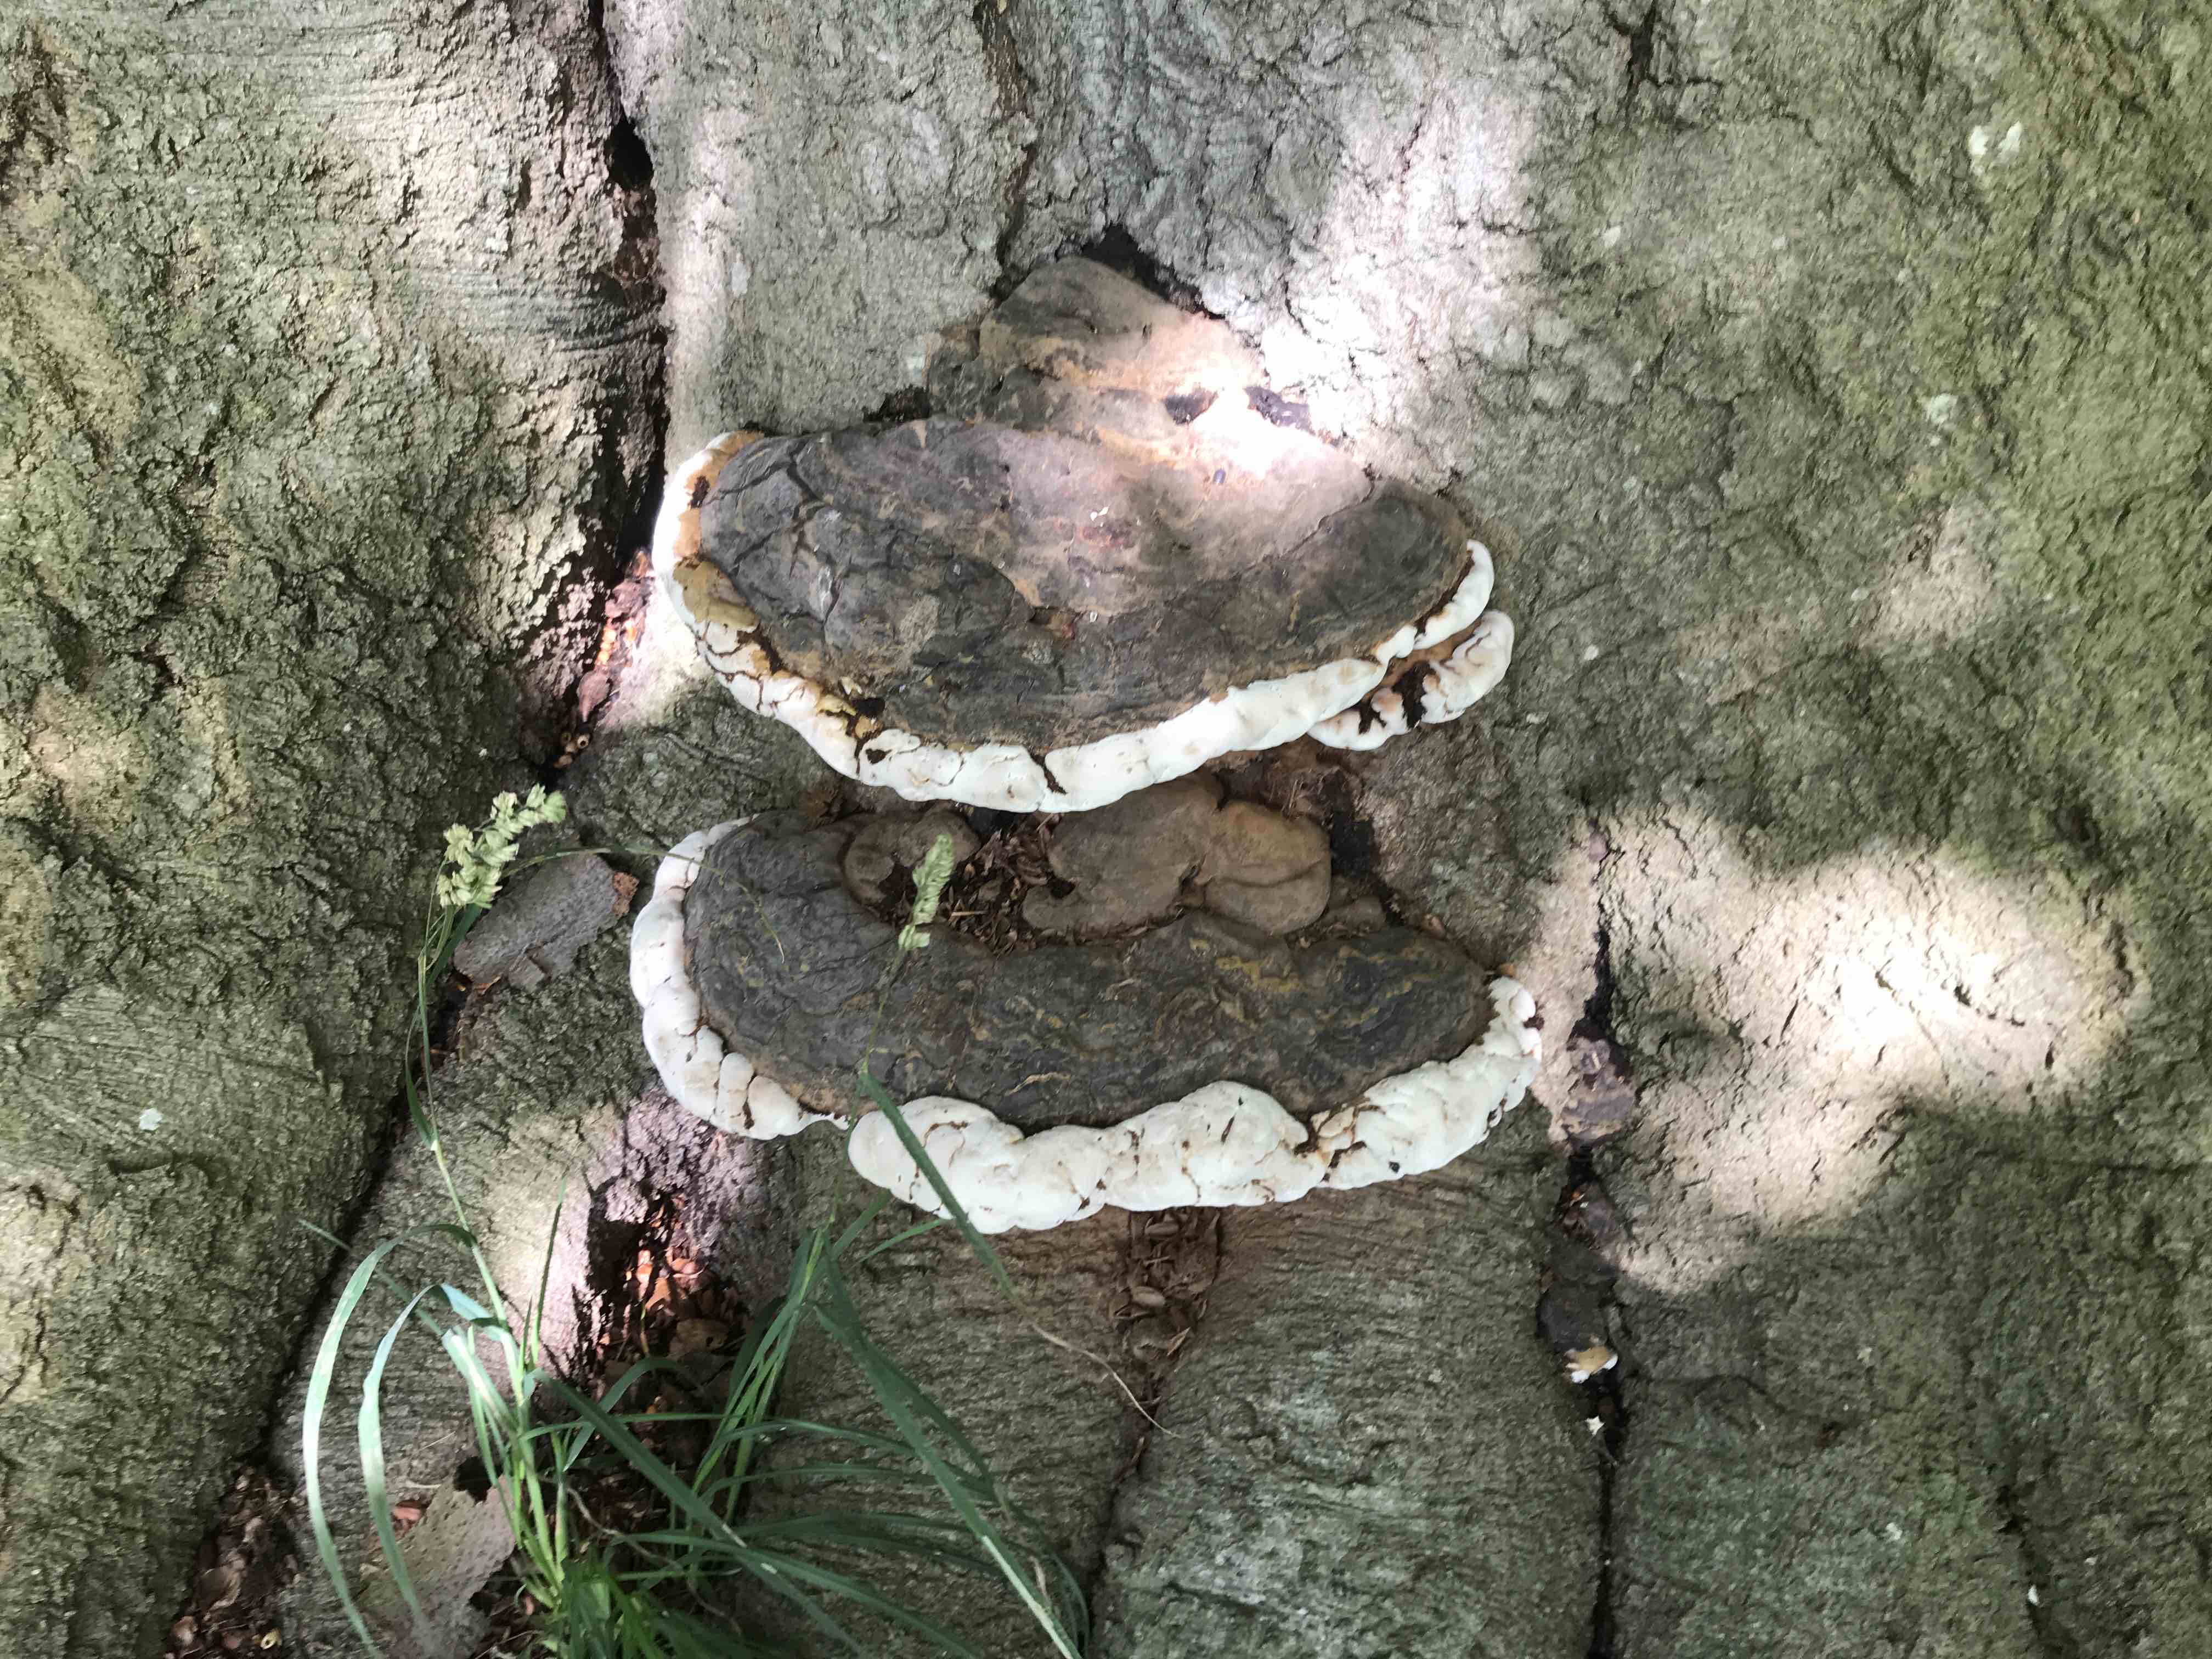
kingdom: Fungi
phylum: Basidiomycota
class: Agaricomycetes
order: Polyporales
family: Polyporaceae
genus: Ganoderma
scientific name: Ganoderma pfeifferi
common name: kobberrød lakporesvamp
